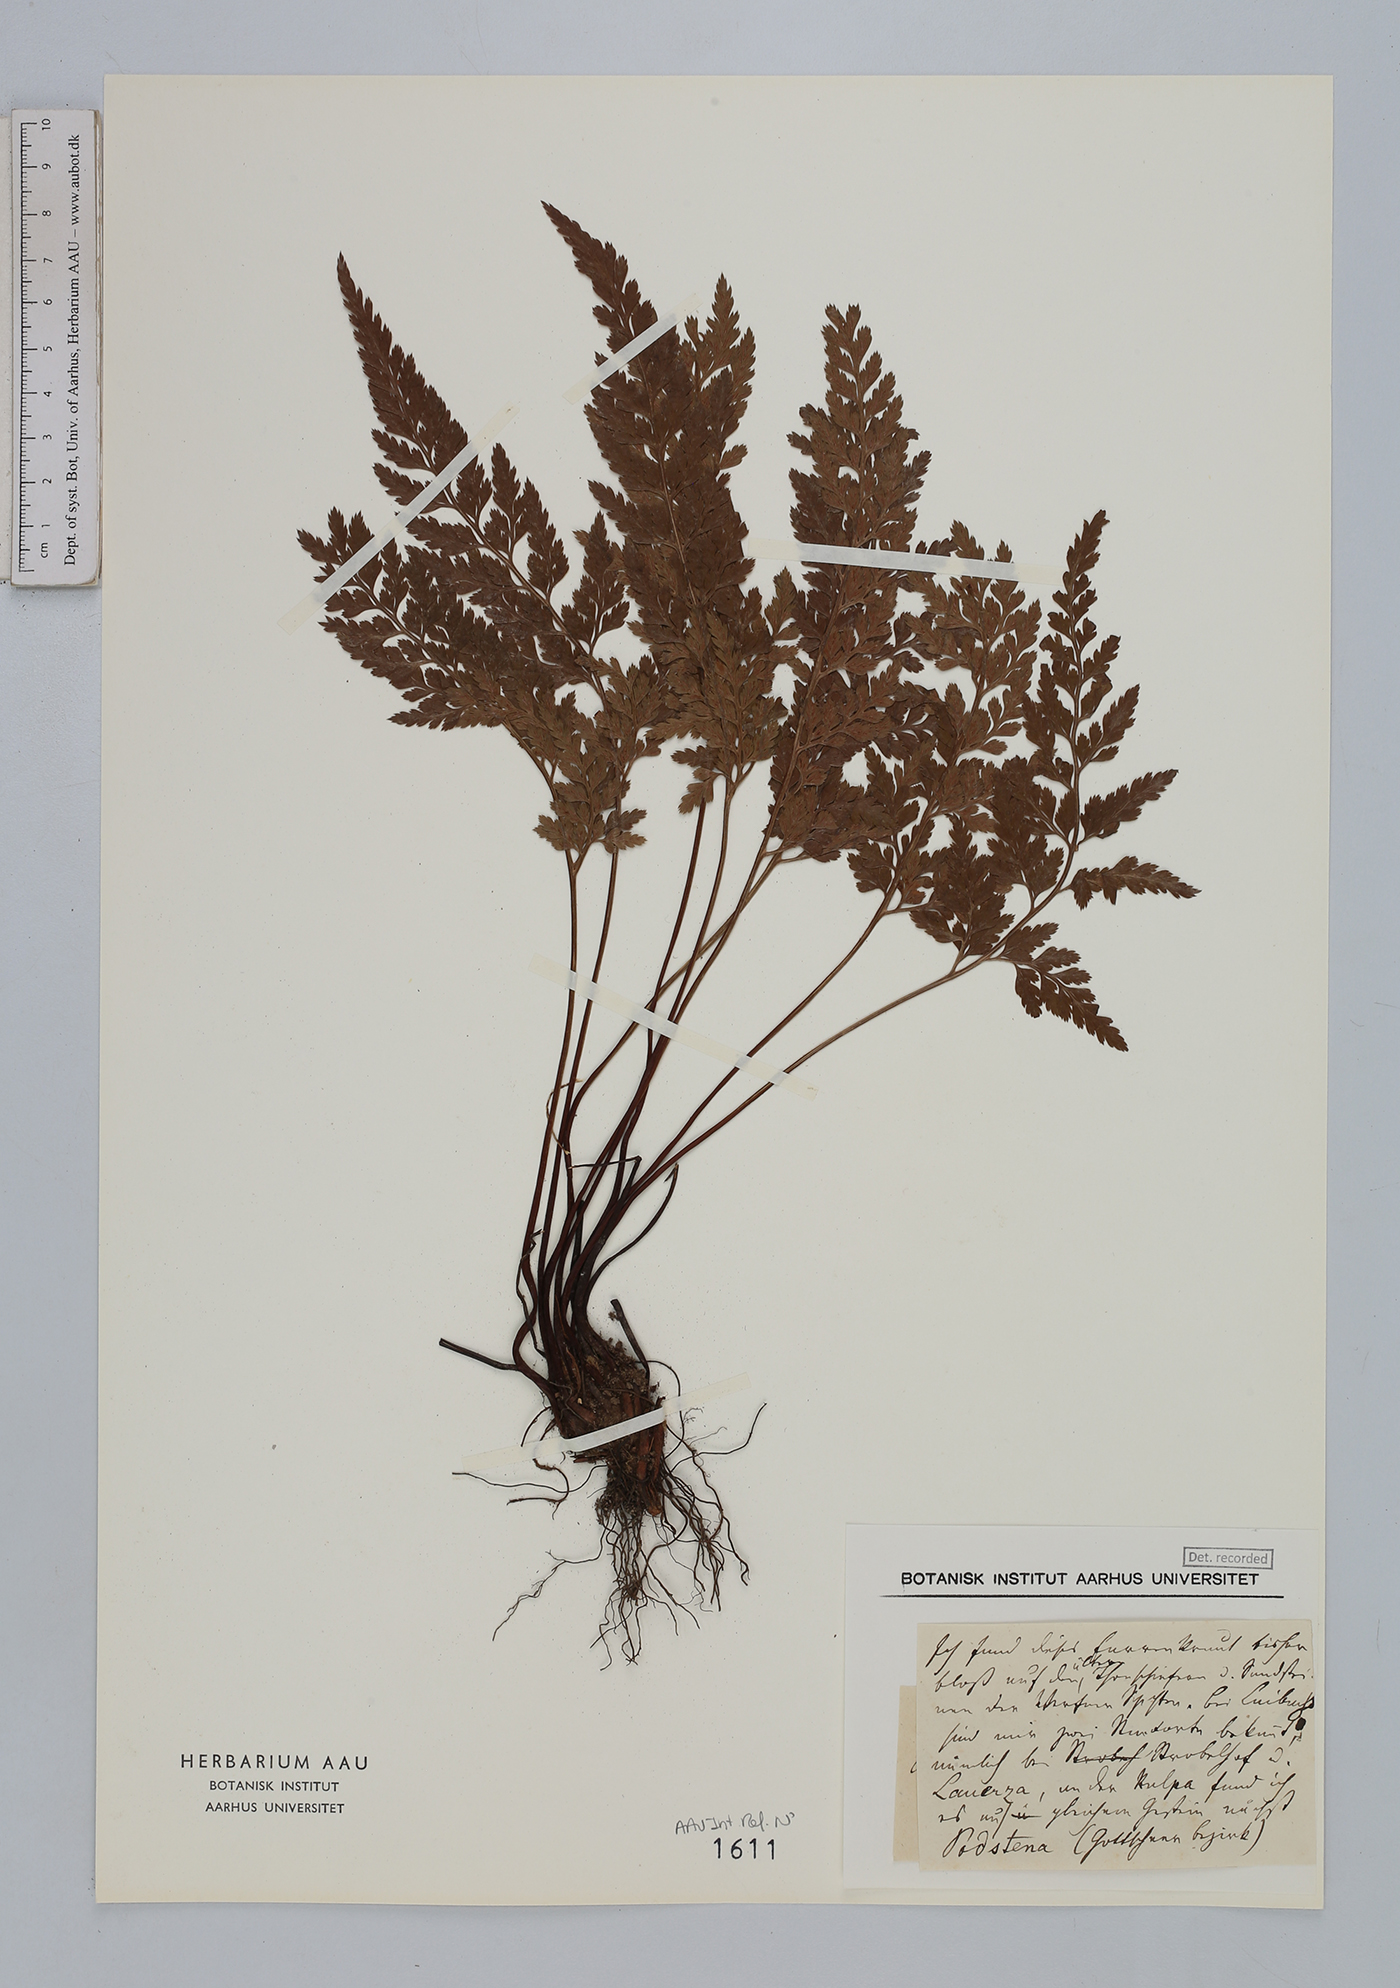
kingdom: Plantae
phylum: Tracheophyta
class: Polypodiopsida
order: Polypodiales
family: Aspleniaceae
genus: Asplenium
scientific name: Asplenium adiantum-nigrum
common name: Black spleenwort
